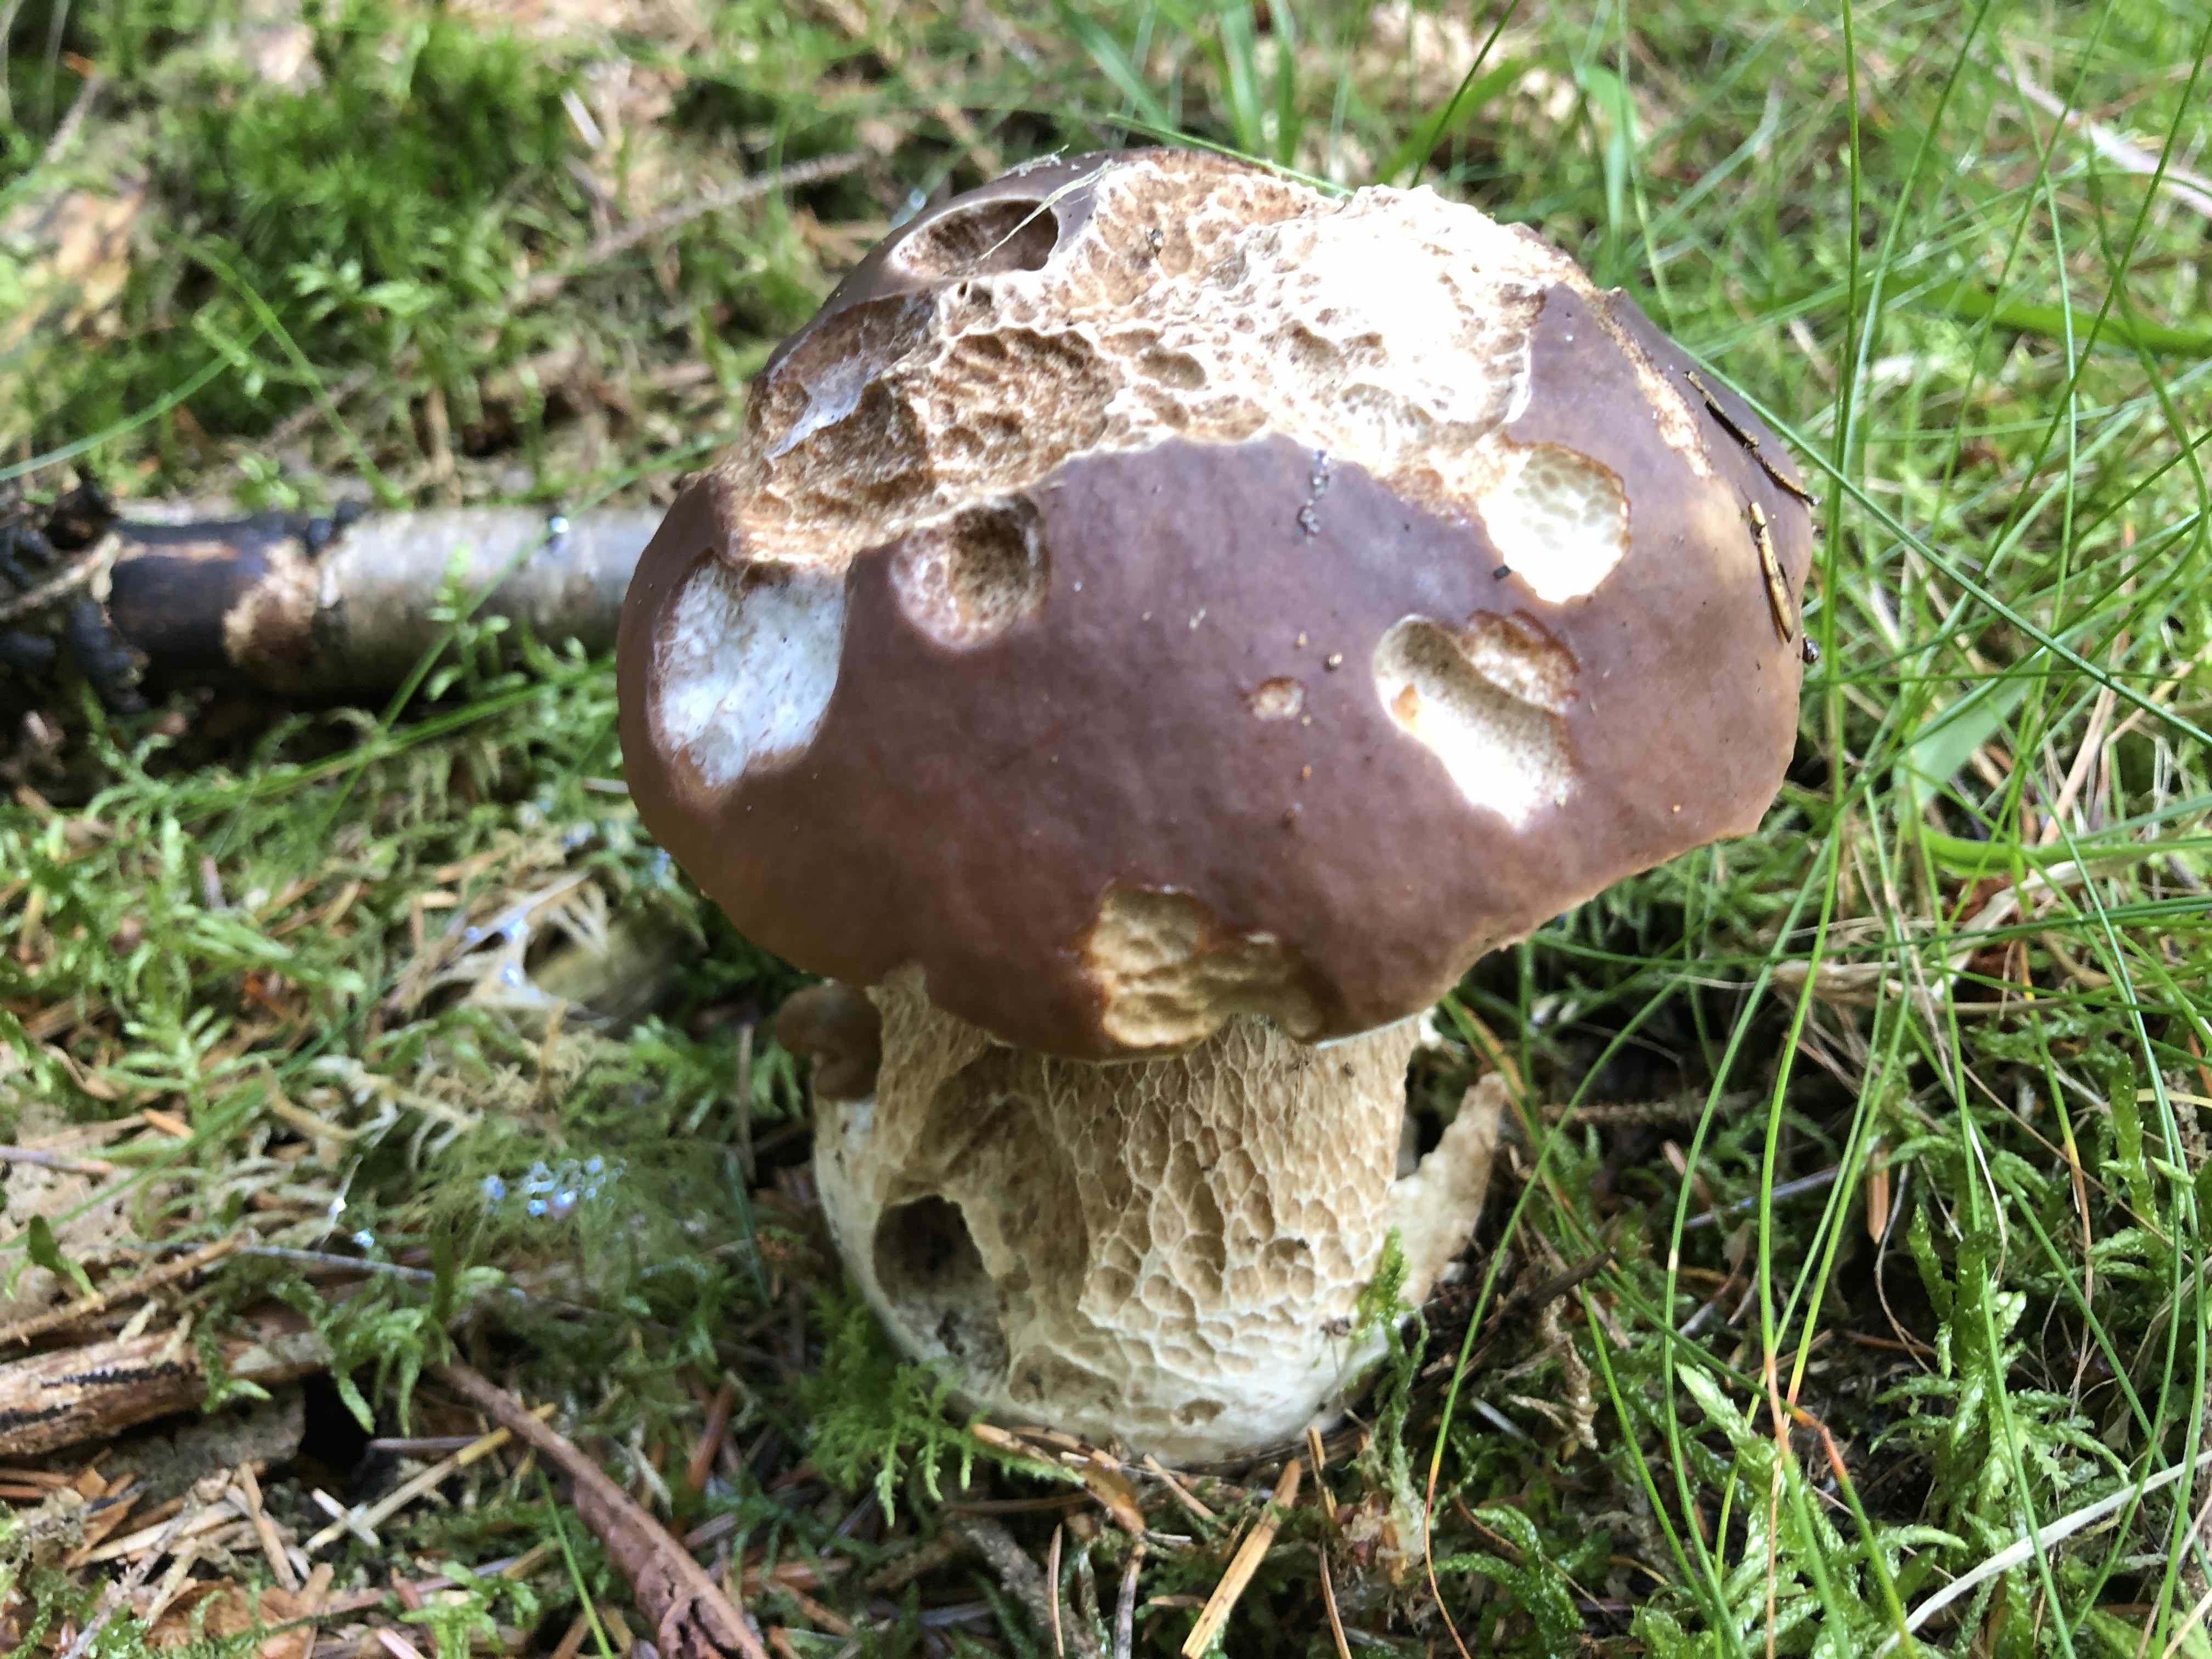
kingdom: Fungi
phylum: Basidiomycota
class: Agaricomycetes
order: Boletales
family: Boletaceae
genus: Boletus
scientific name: Boletus edulis
